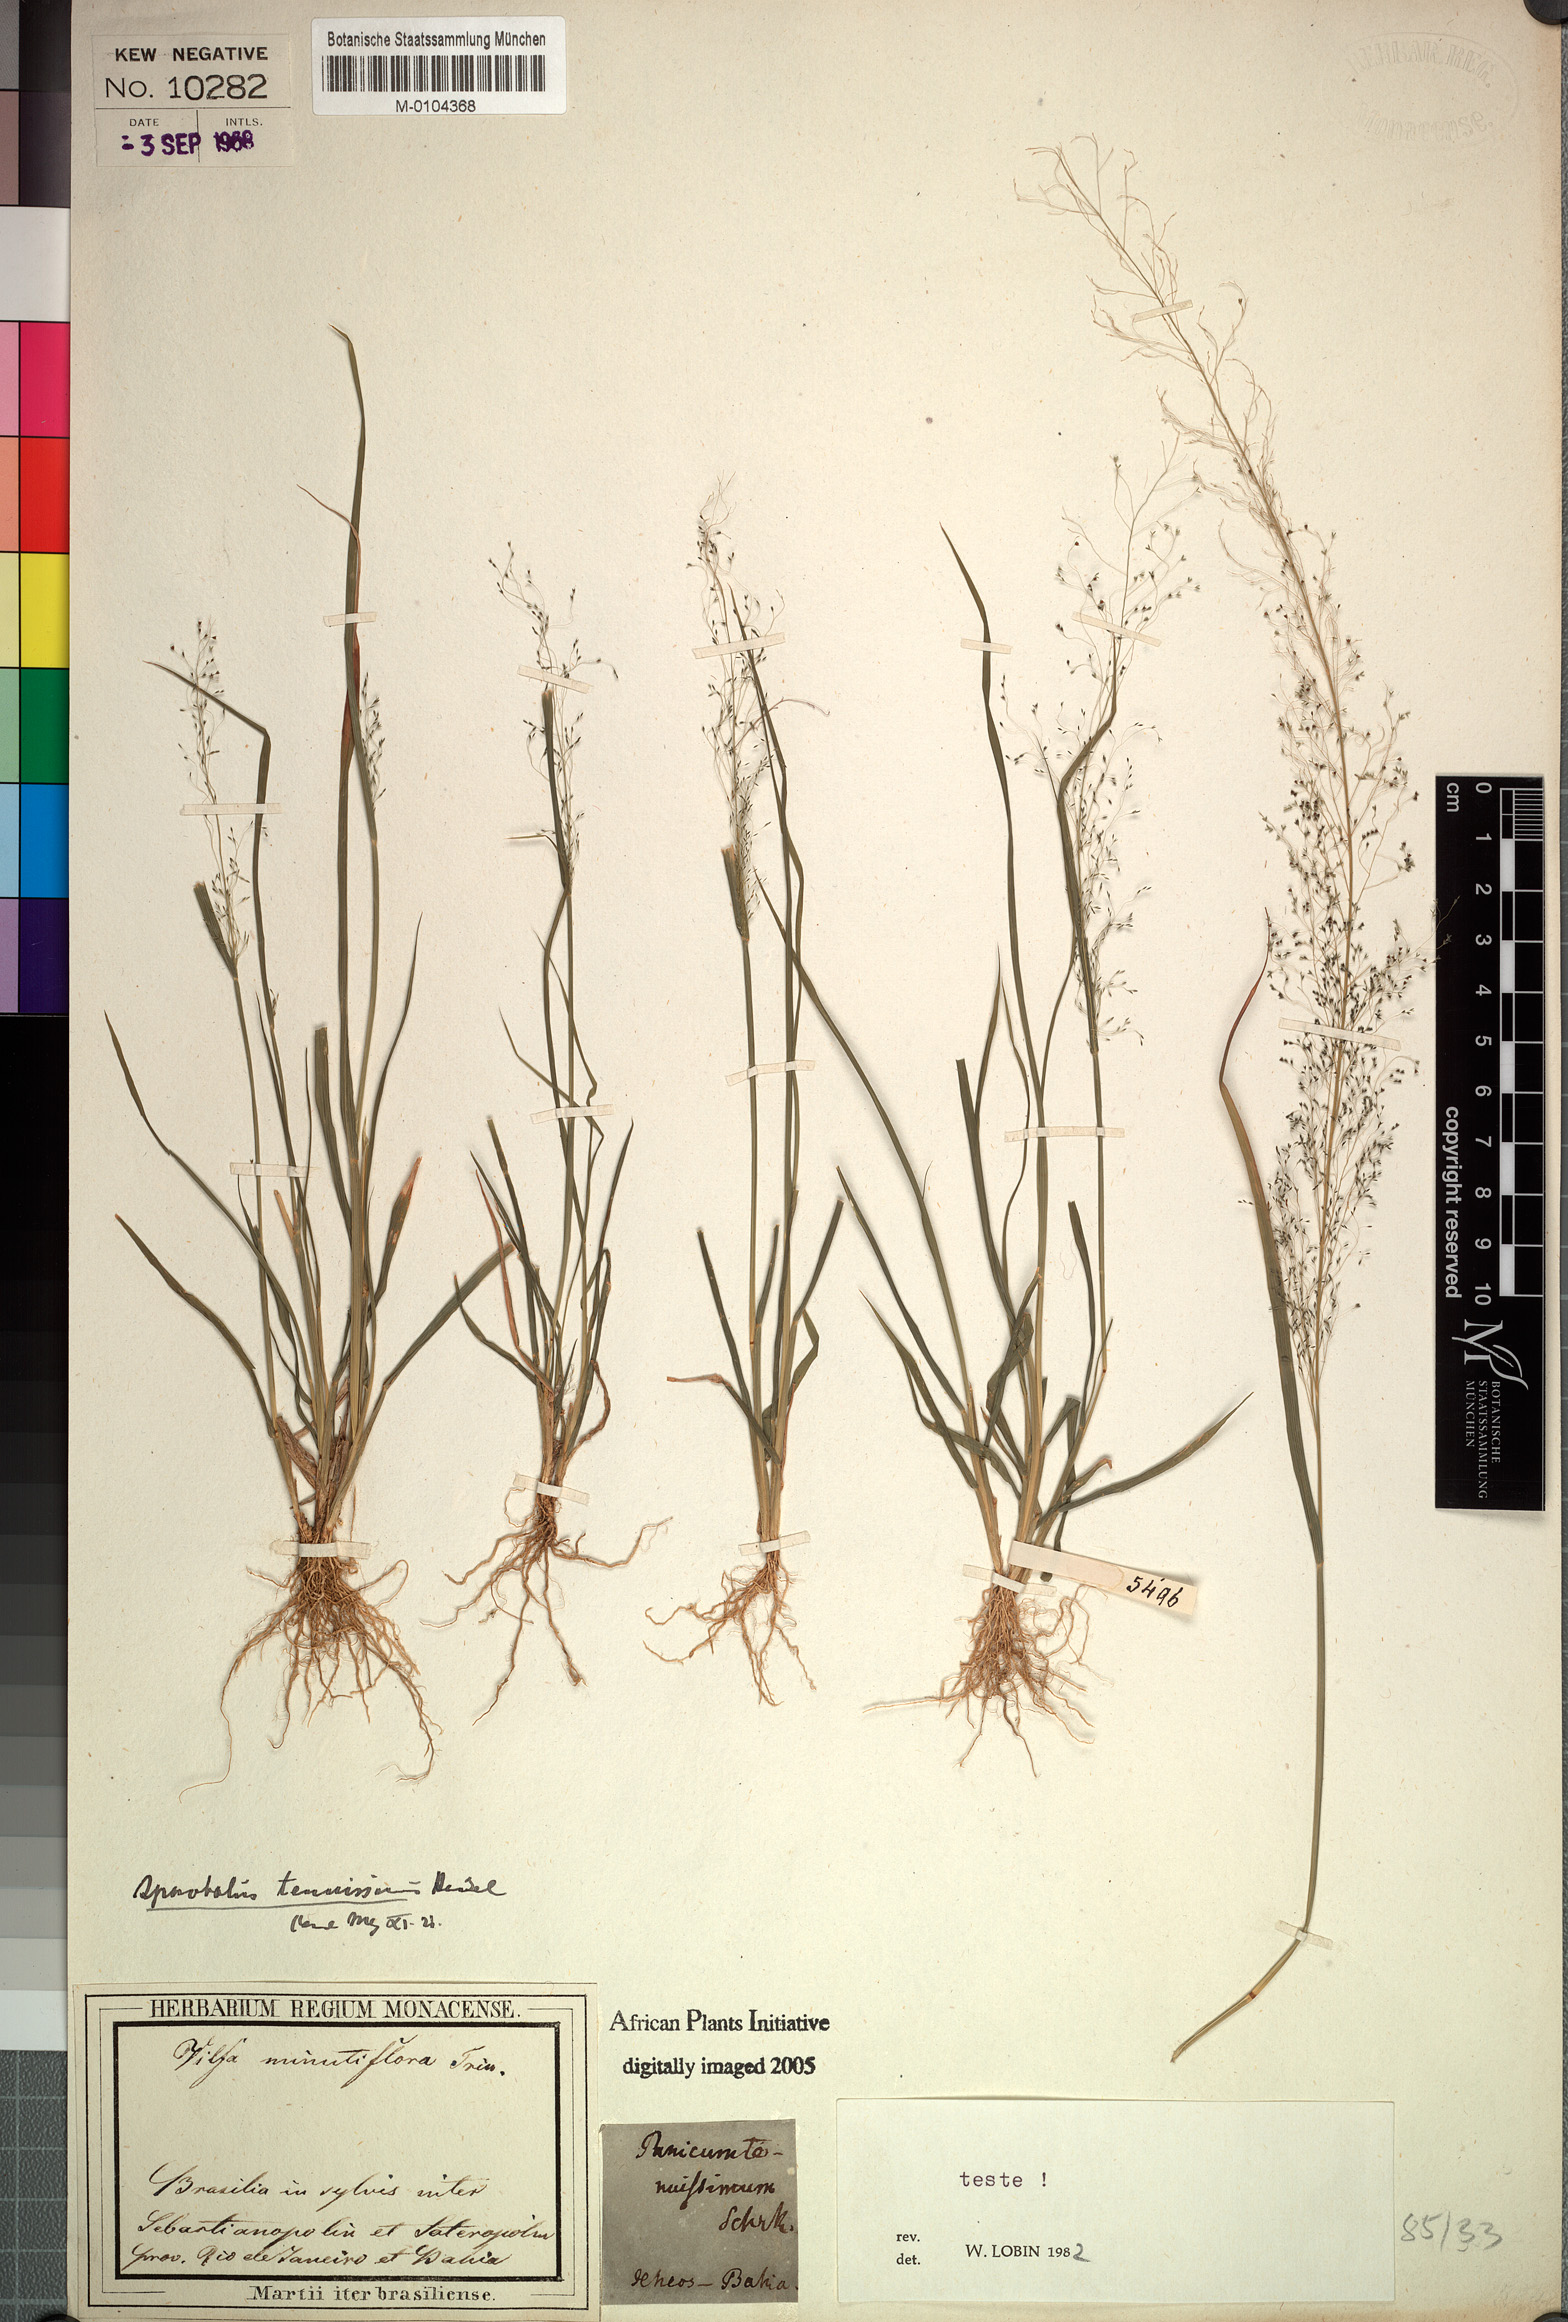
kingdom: Plantae
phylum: Tracheophyta
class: Liliopsida
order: Poales
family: Poaceae
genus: Sporobolus
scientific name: Sporobolus tenuissimus
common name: Tropical dropseed
